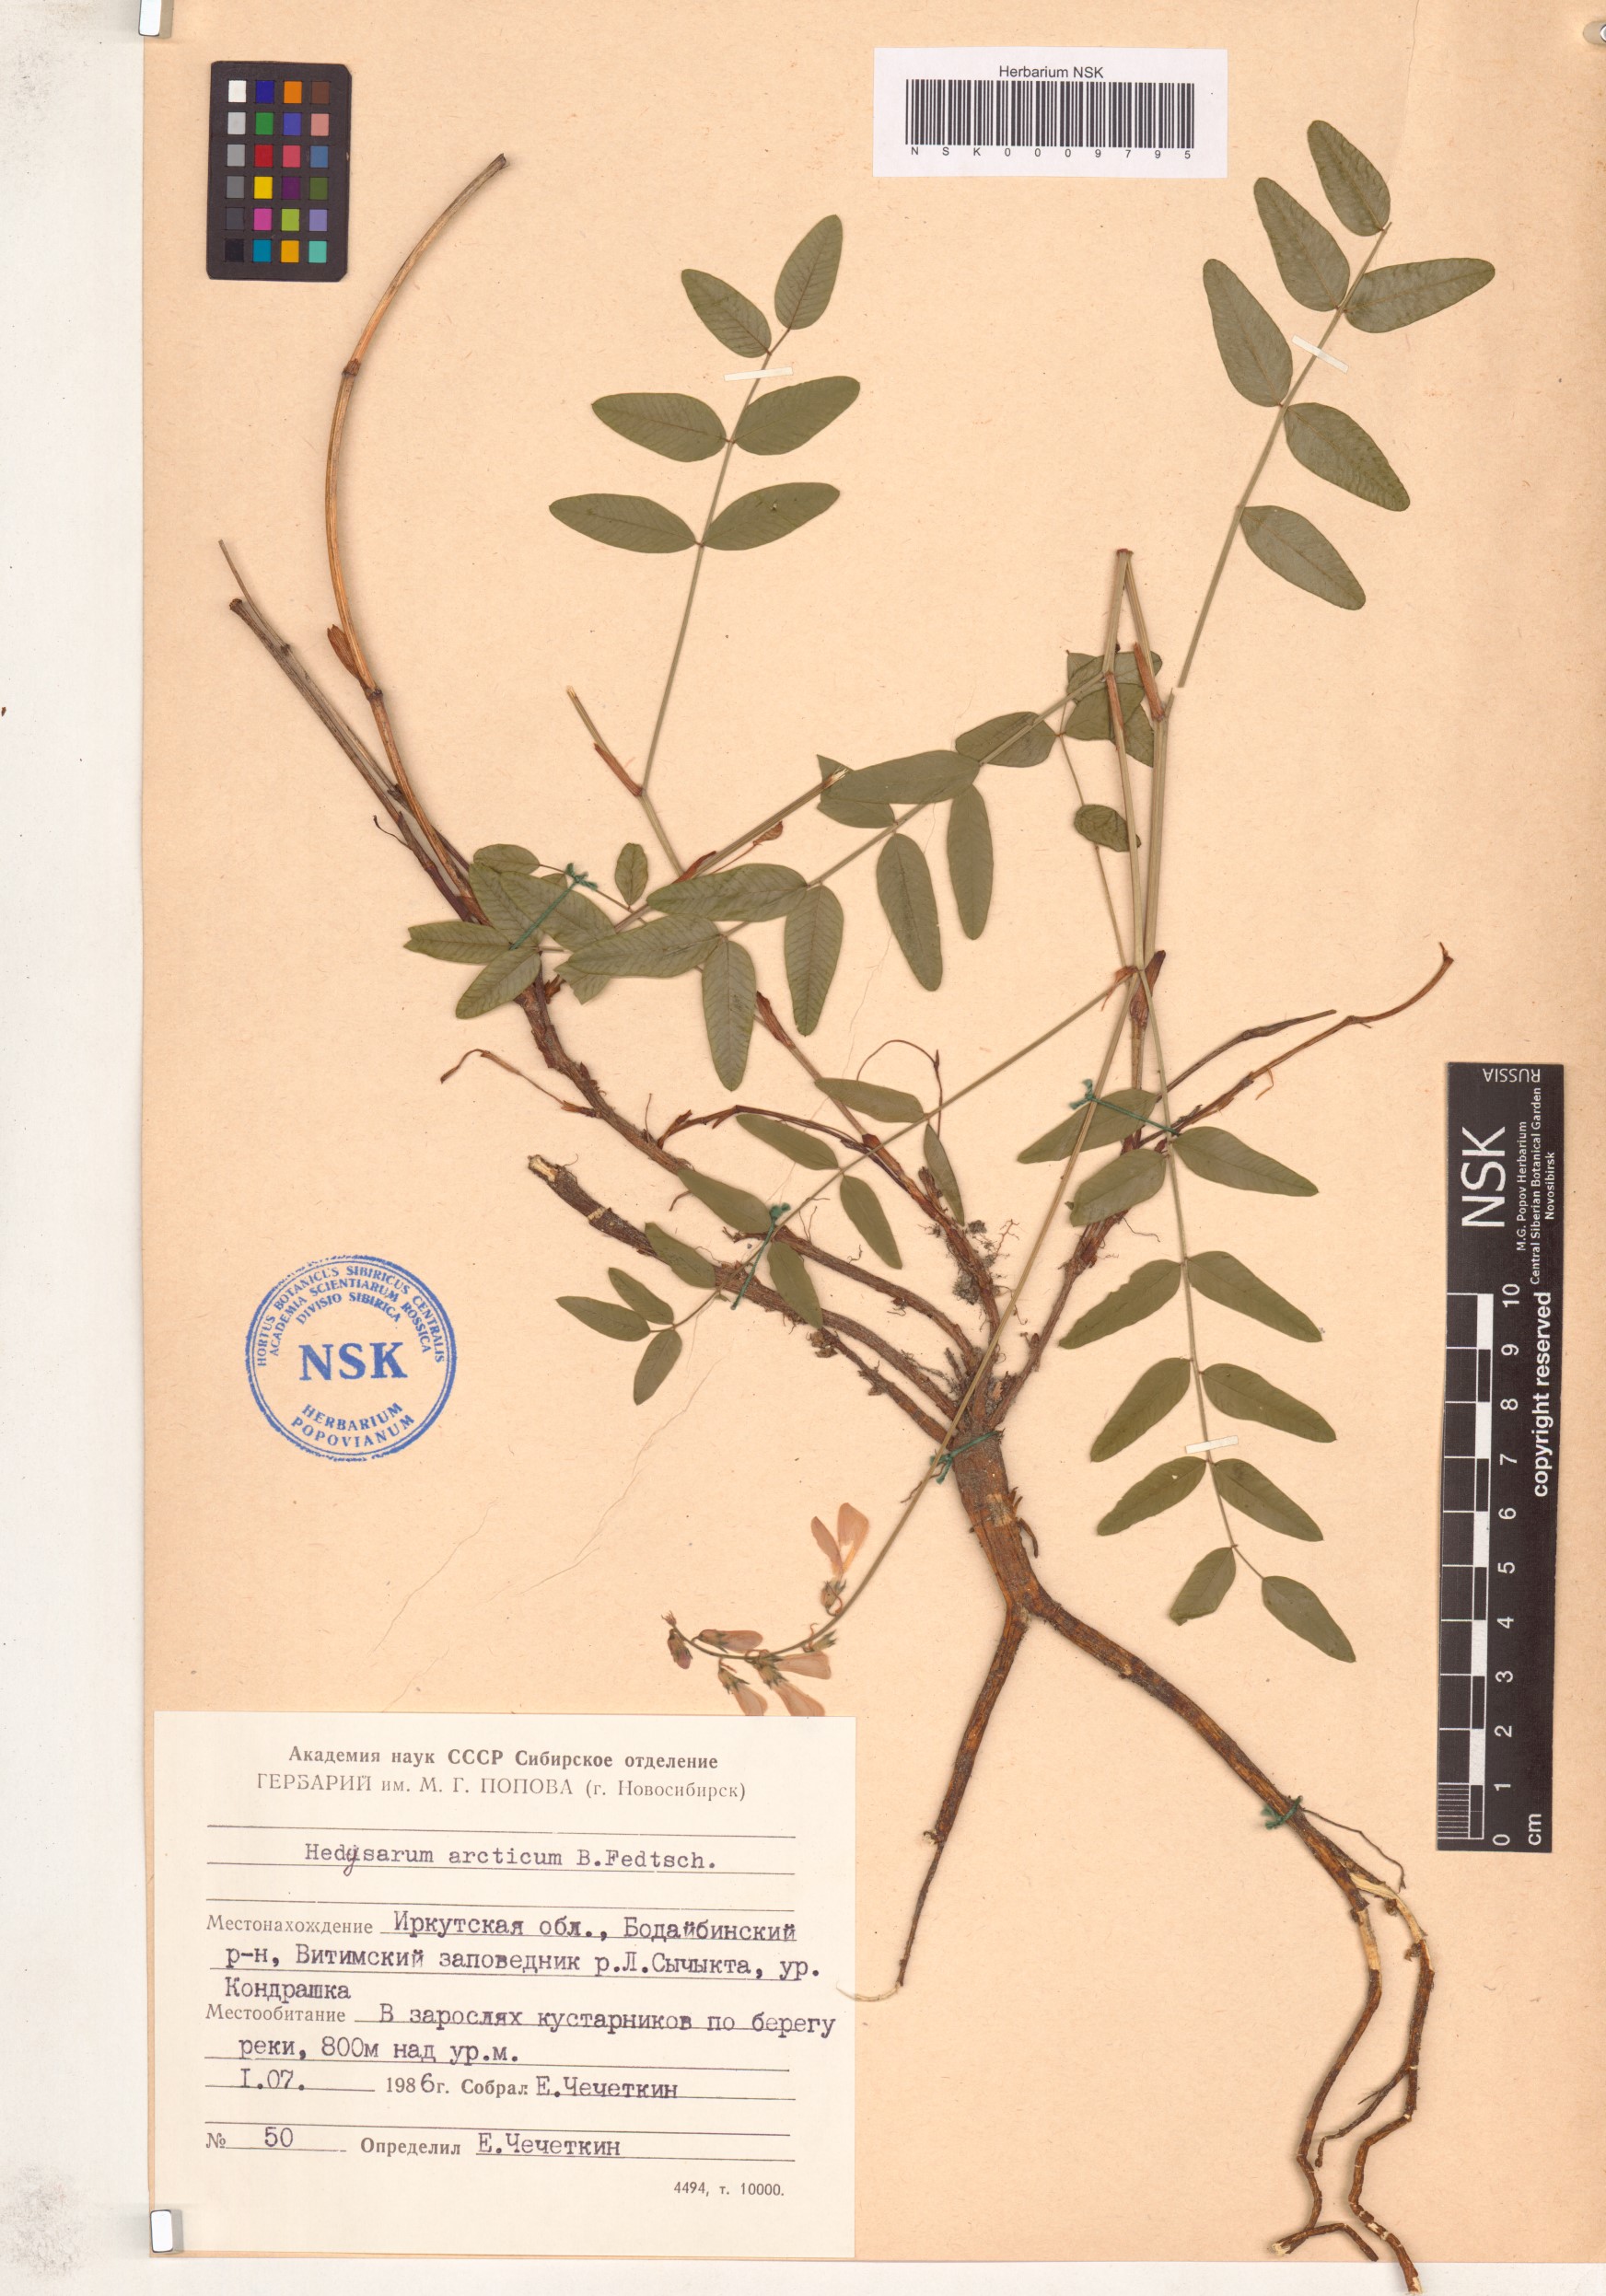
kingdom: Plantae
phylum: Tracheophyta
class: Magnoliopsida
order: Fabales
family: Fabaceae
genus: Hedysarum
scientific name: Hedysarum hedysaroides
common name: Alpine french-honeysuckle
